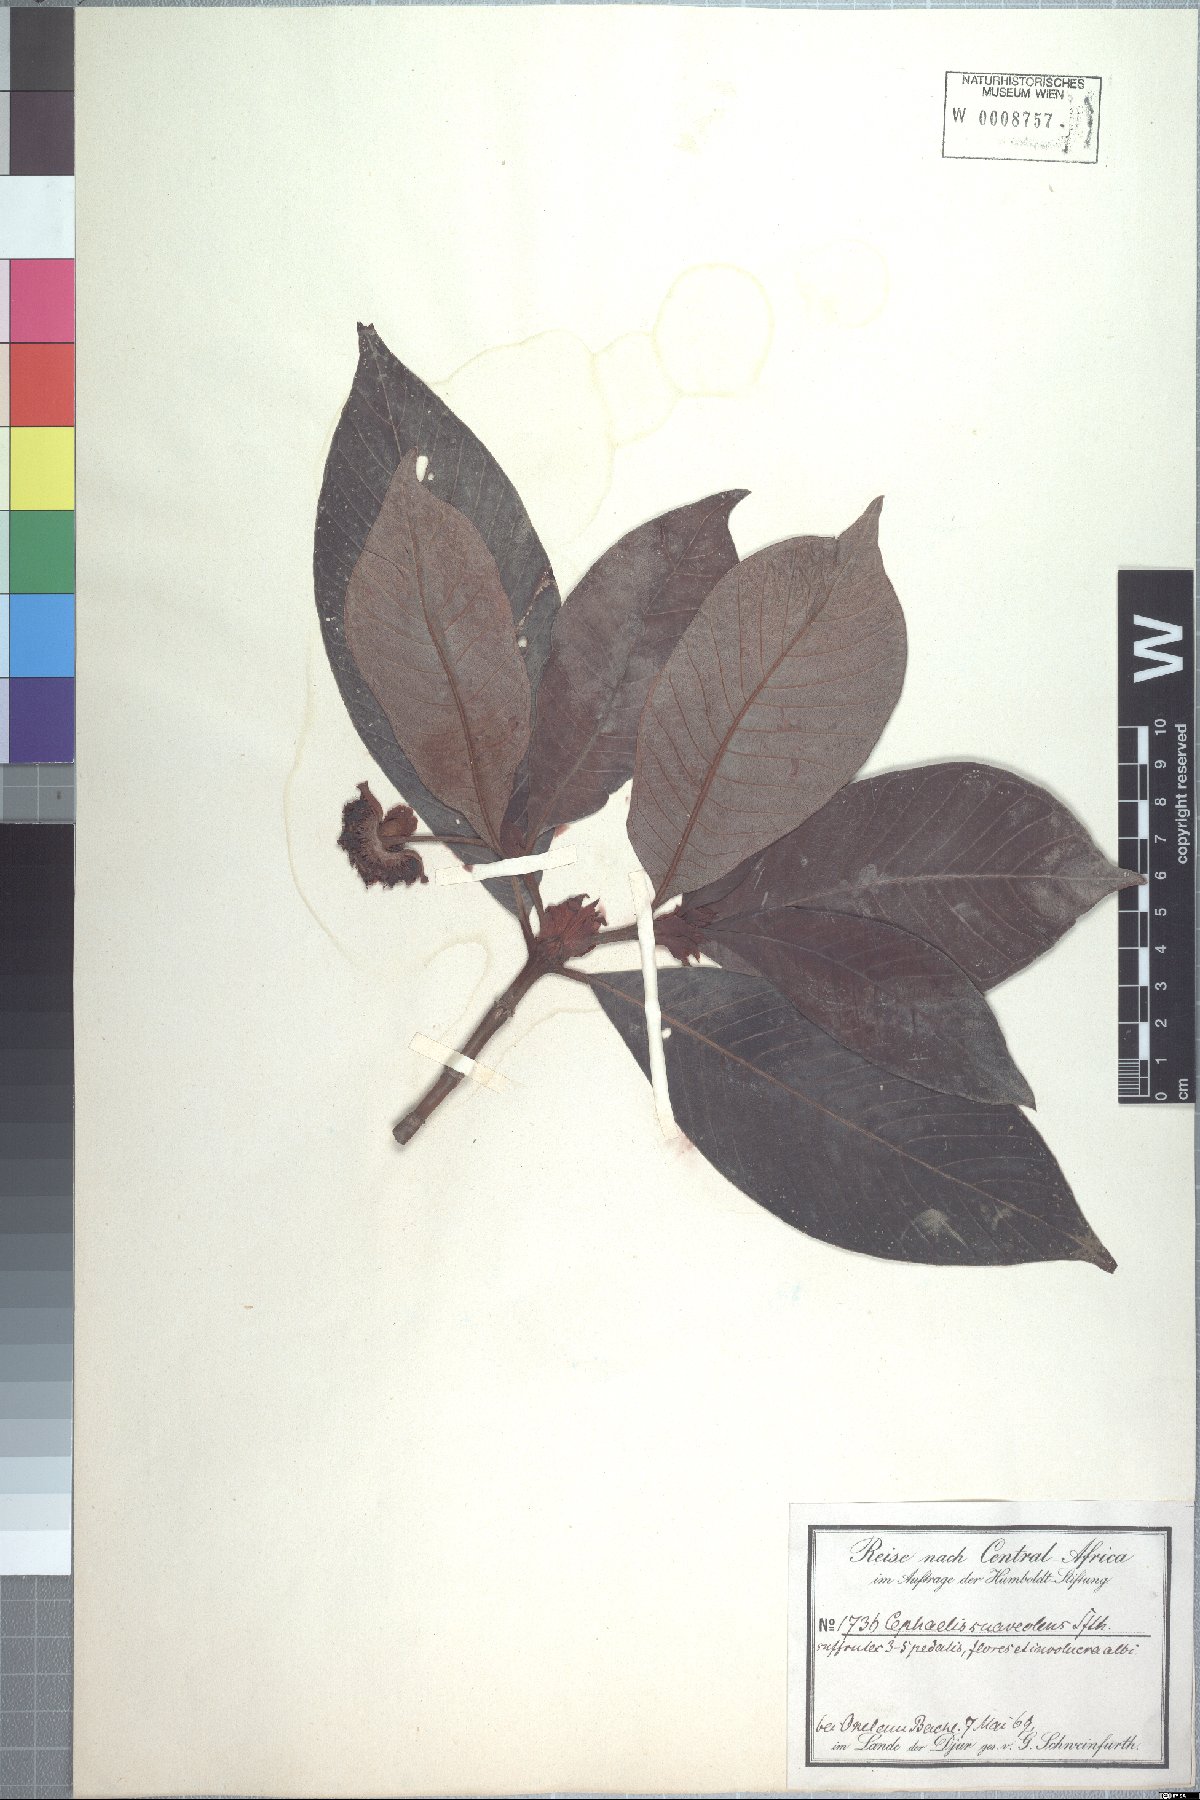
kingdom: Plantae
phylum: Tracheophyta
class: Magnoliopsida
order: Gentianales
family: Rubiaceae
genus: Psychotria
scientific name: Psychotria peduncularis
